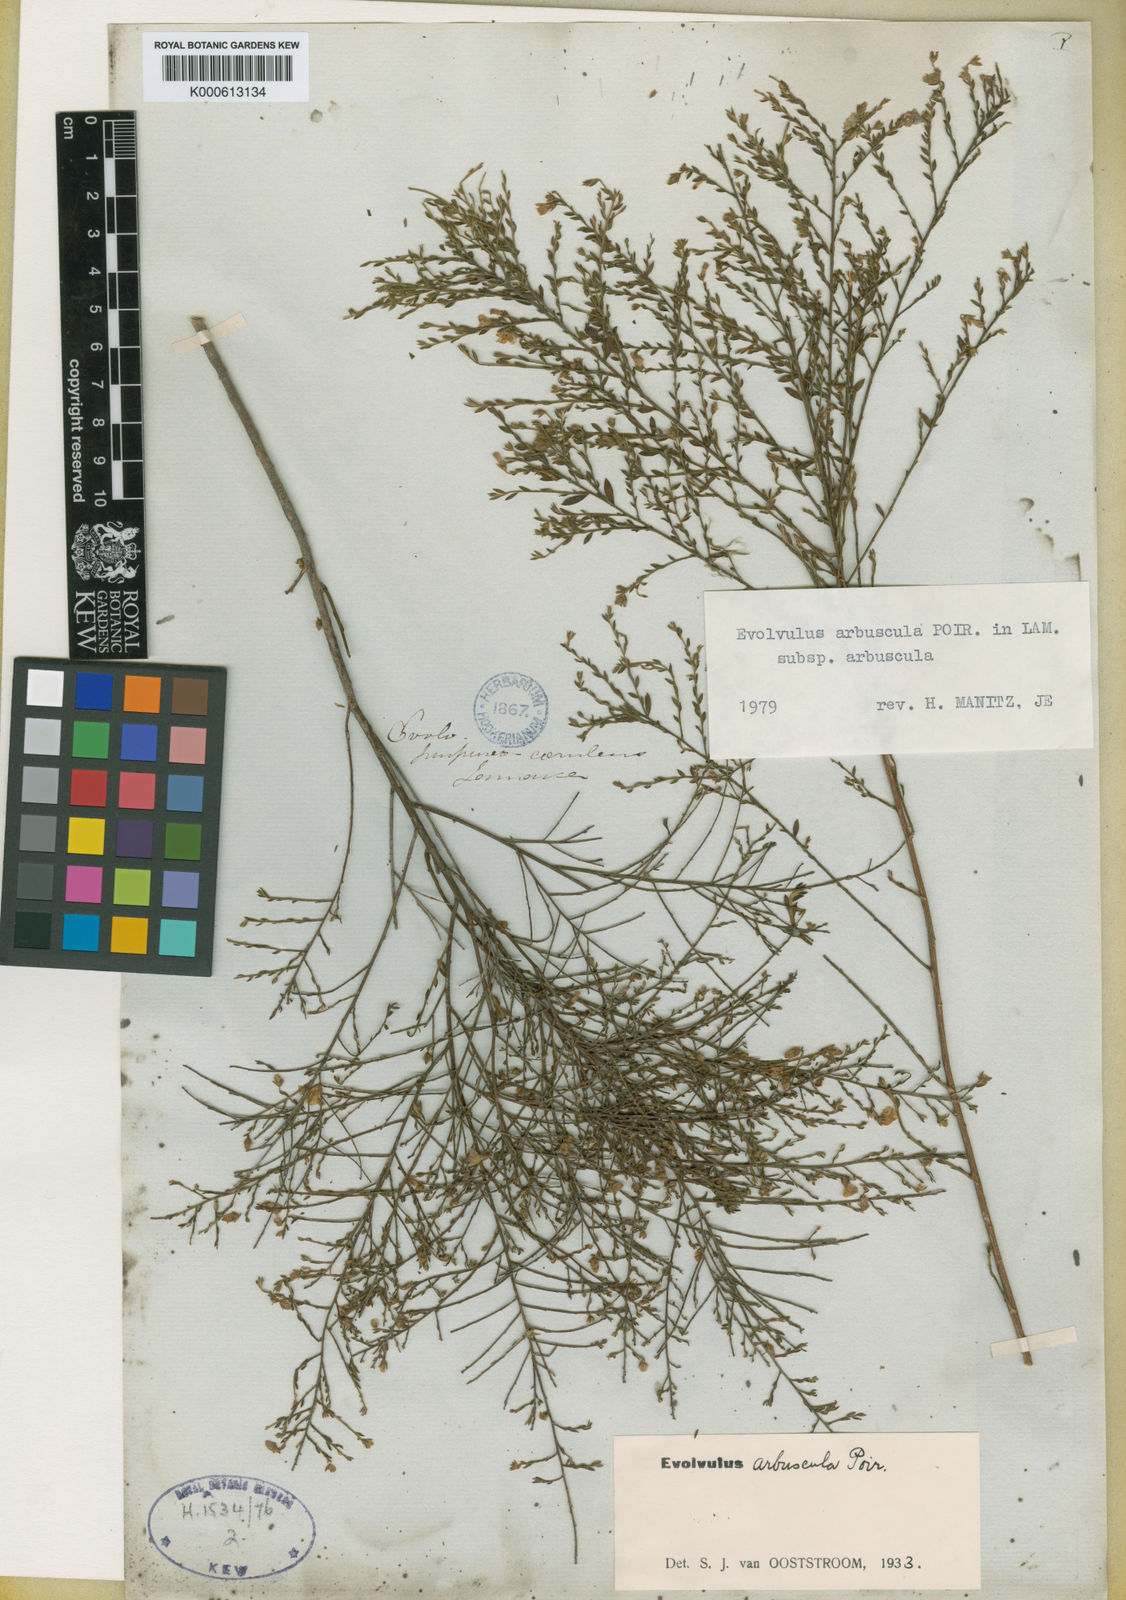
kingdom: Plantae
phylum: Tracheophyta
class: Magnoliopsida
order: Solanales
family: Convolvulaceae
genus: Evolvulus
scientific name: Evolvulus arbuscula
